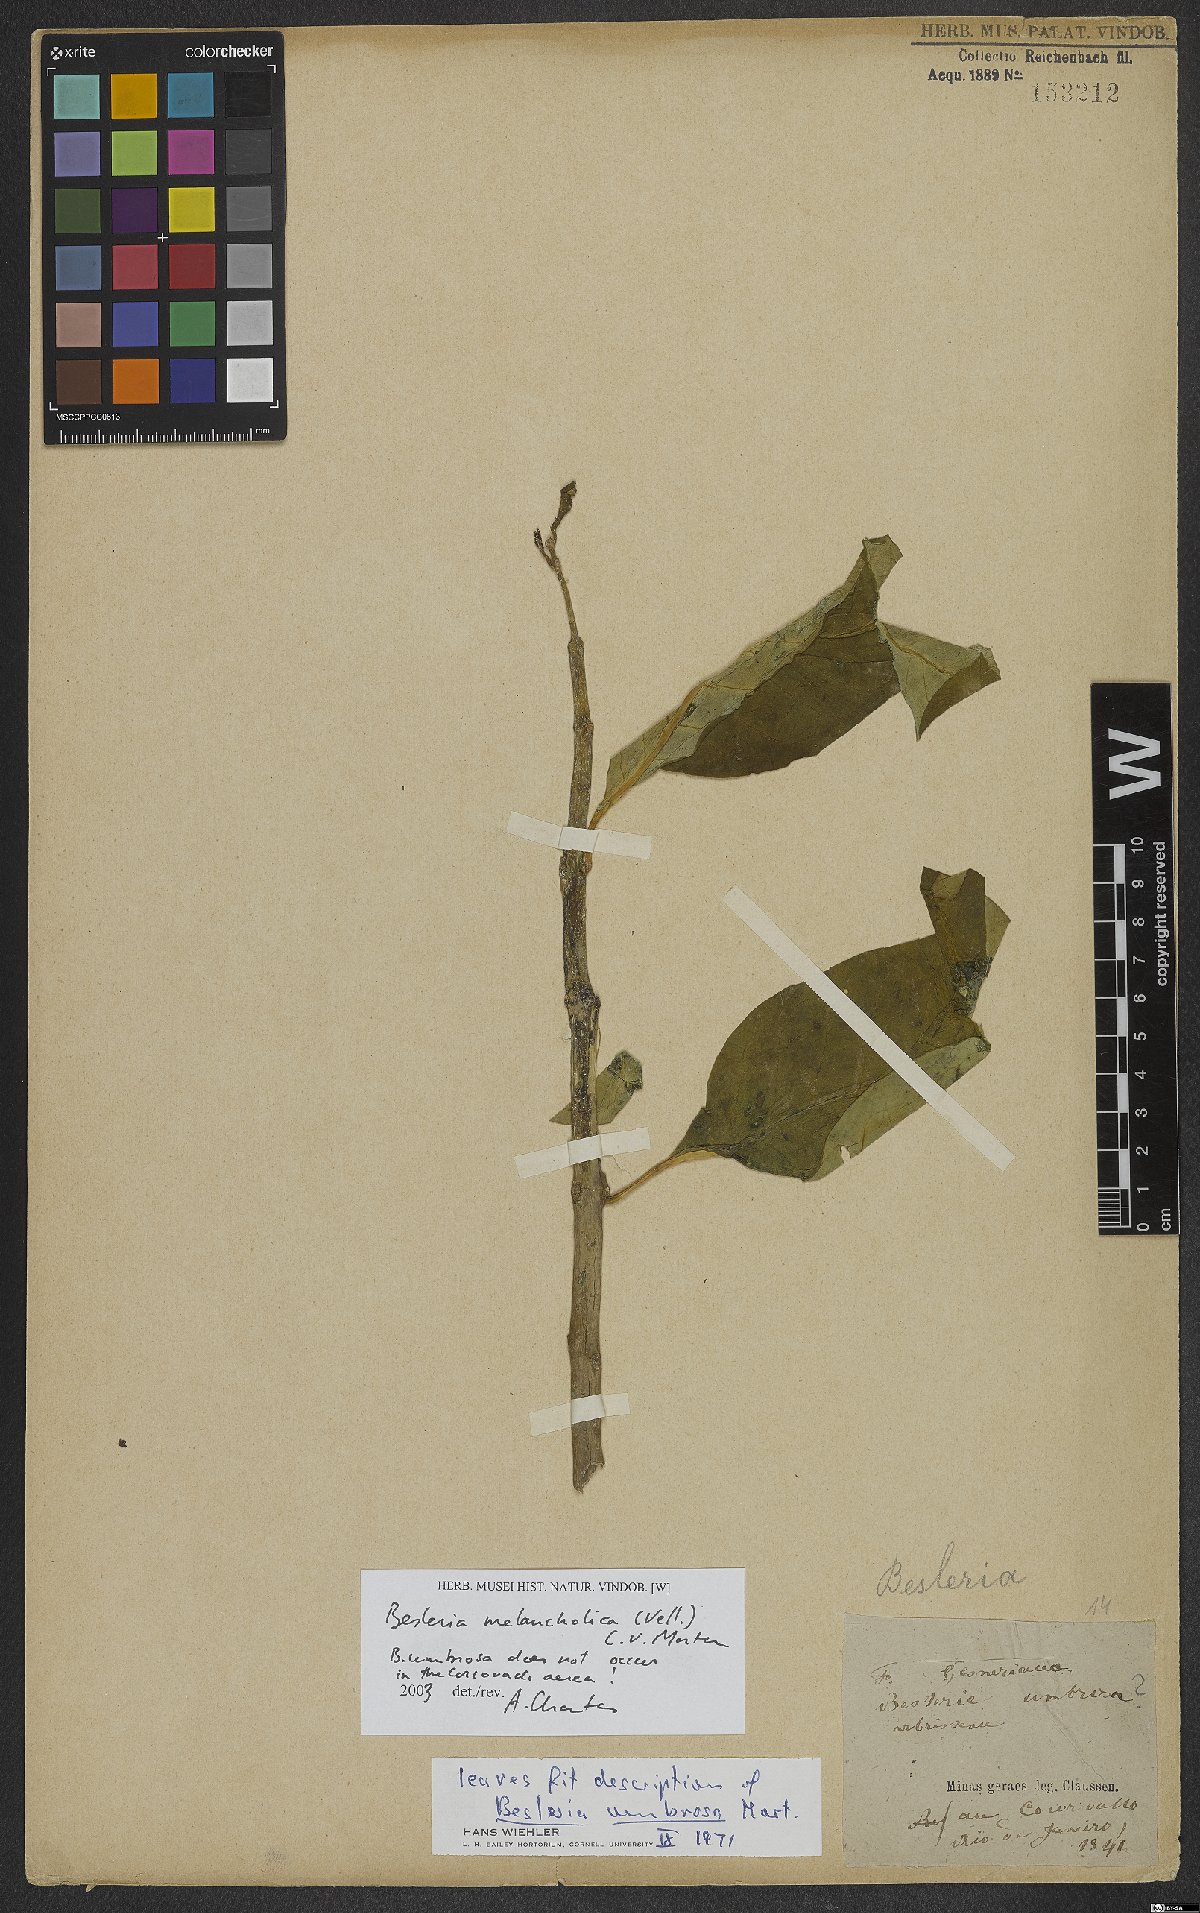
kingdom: Plantae
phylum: Tracheophyta
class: Magnoliopsida
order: Lamiales
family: Gesneriaceae
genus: Besleria
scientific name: Besleria melancholica
